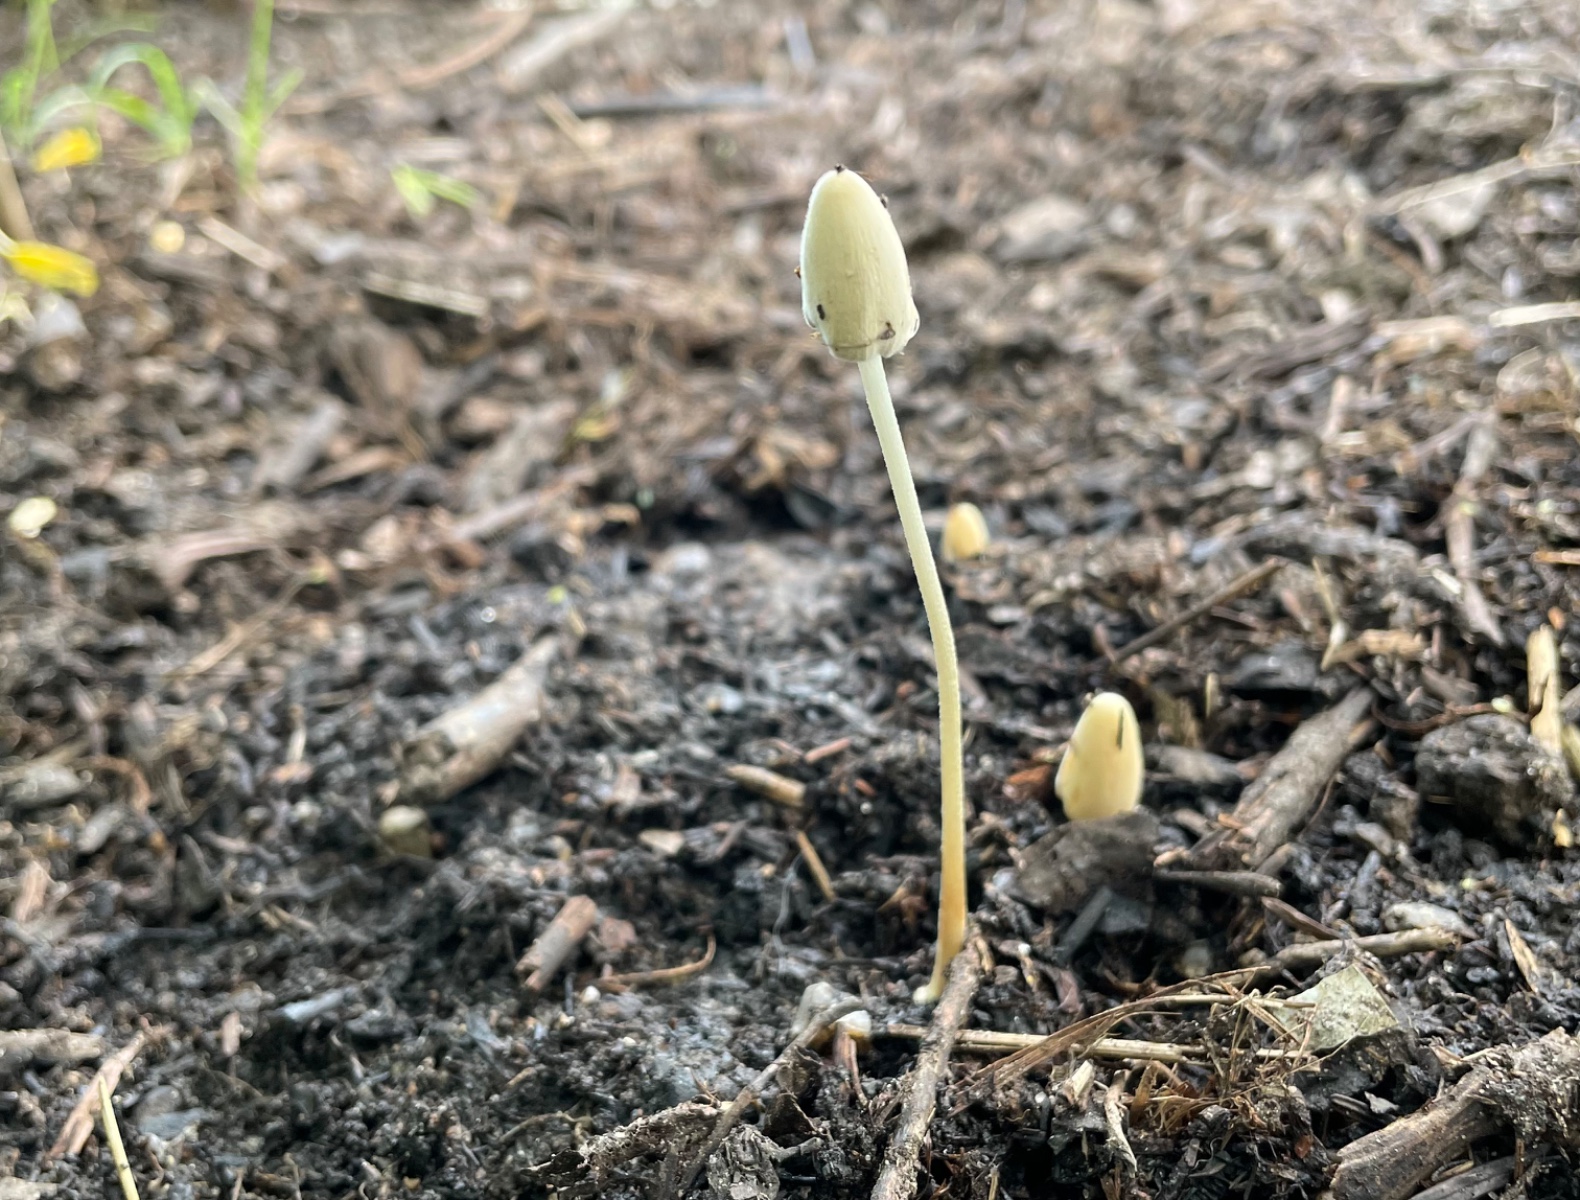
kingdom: Fungi
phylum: Basidiomycota
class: Agaricomycetes
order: Agaricales
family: Bolbitiaceae
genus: Conocybe
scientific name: Conocybe apala
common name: køllestokket keglehat
